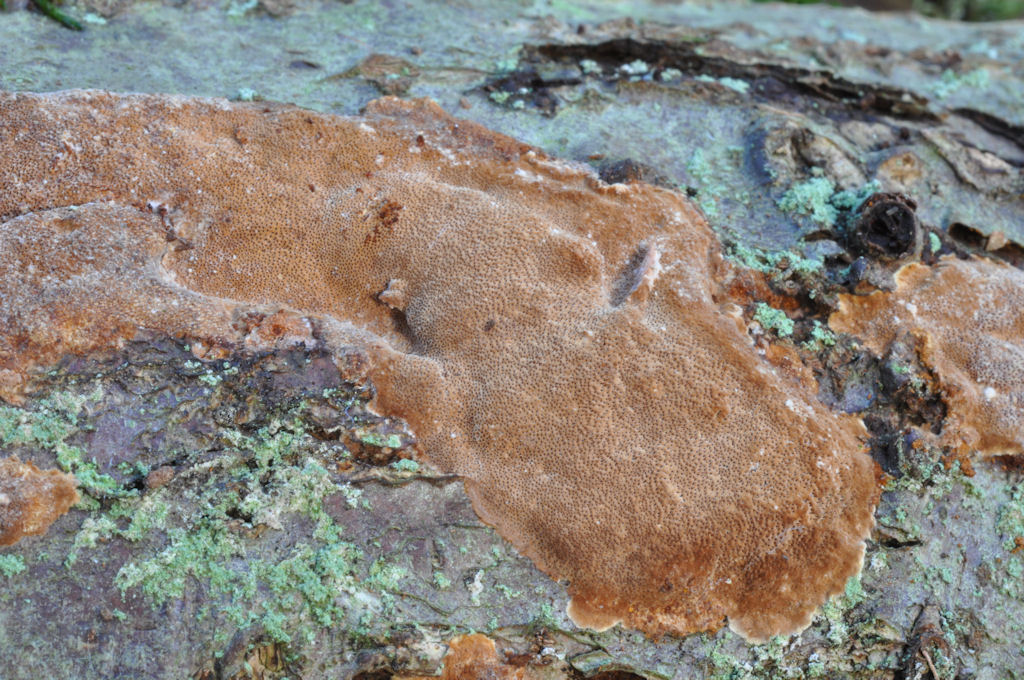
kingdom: Fungi
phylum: Basidiomycota
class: Agaricomycetes
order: Hymenochaetales
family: Hymenochaetaceae
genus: Fuscoporia
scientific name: Fuscoporia ferrea
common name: skorpe-ildporesvamp
